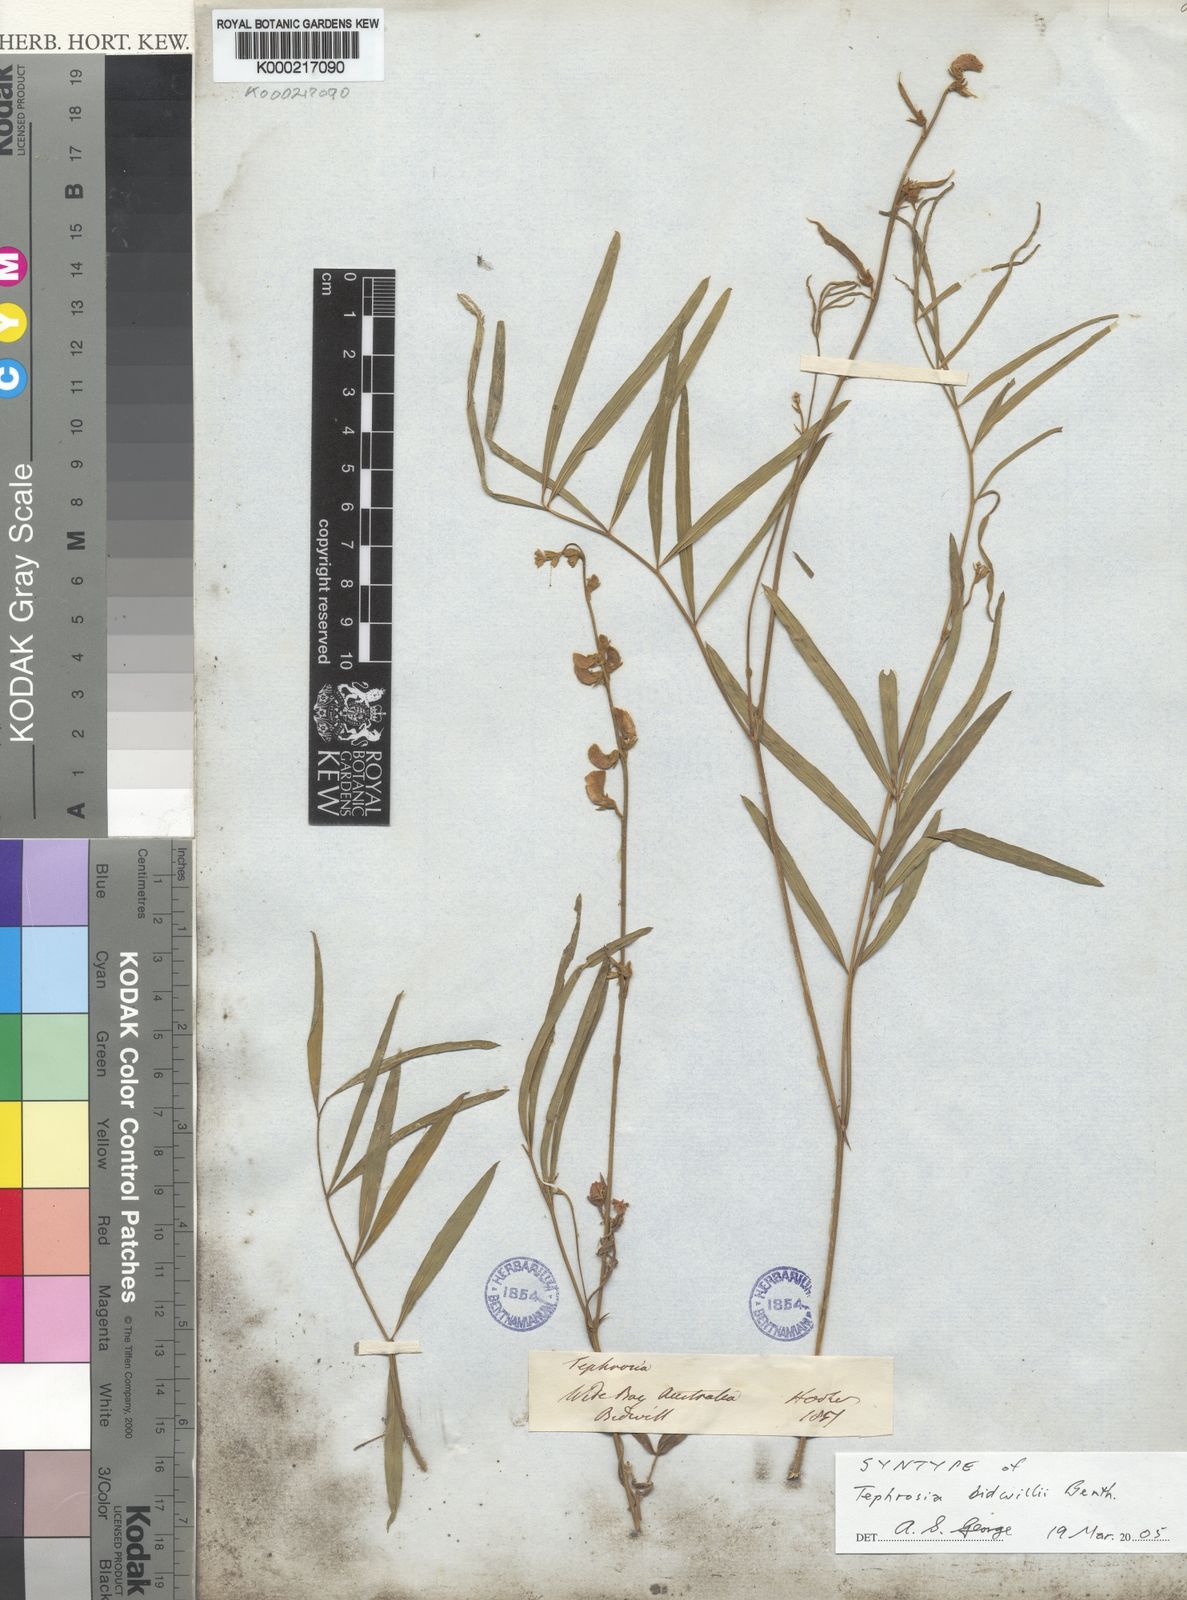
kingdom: Plantae
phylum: Tracheophyta
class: Magnoliopsida
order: Fabales
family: Fabaceae
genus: Tephrosia
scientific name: Tephrosia bidwillii
